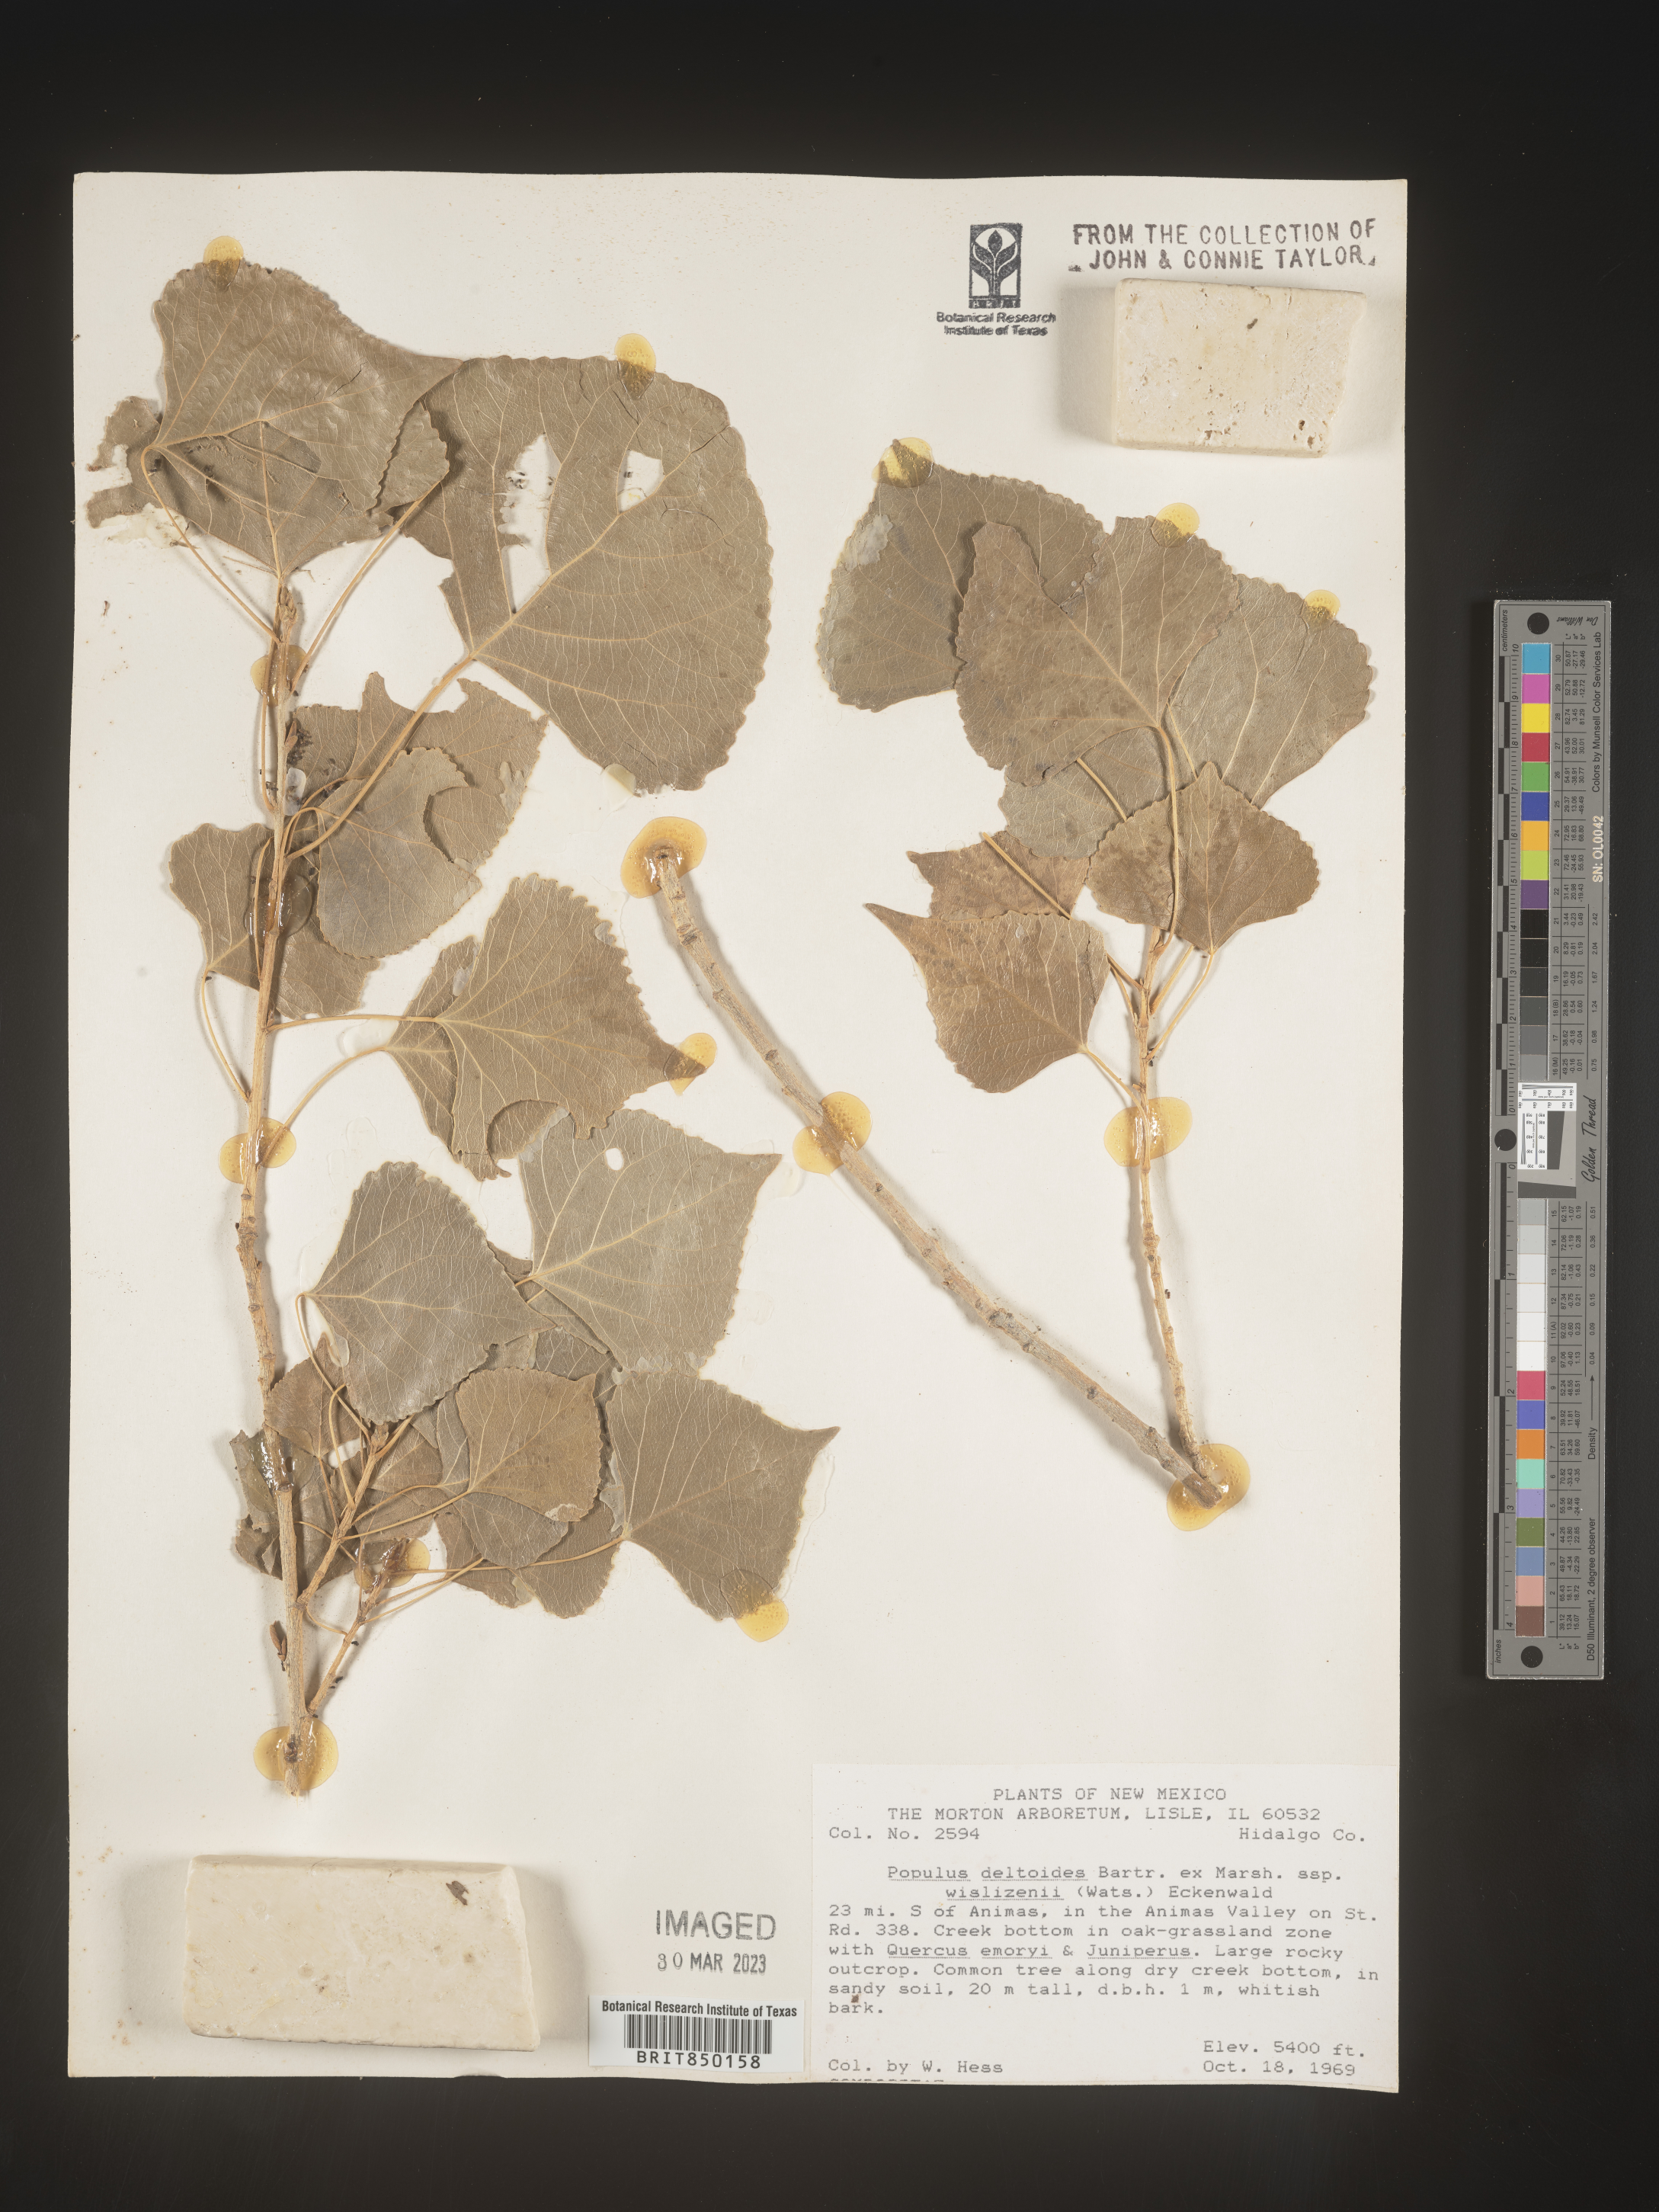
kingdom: Plantae
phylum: Tracheophyta
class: Magnoliopsida
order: Malpighiales
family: Salicaceae
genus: Populus
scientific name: Populus deltoides
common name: Eastern cottonwood
